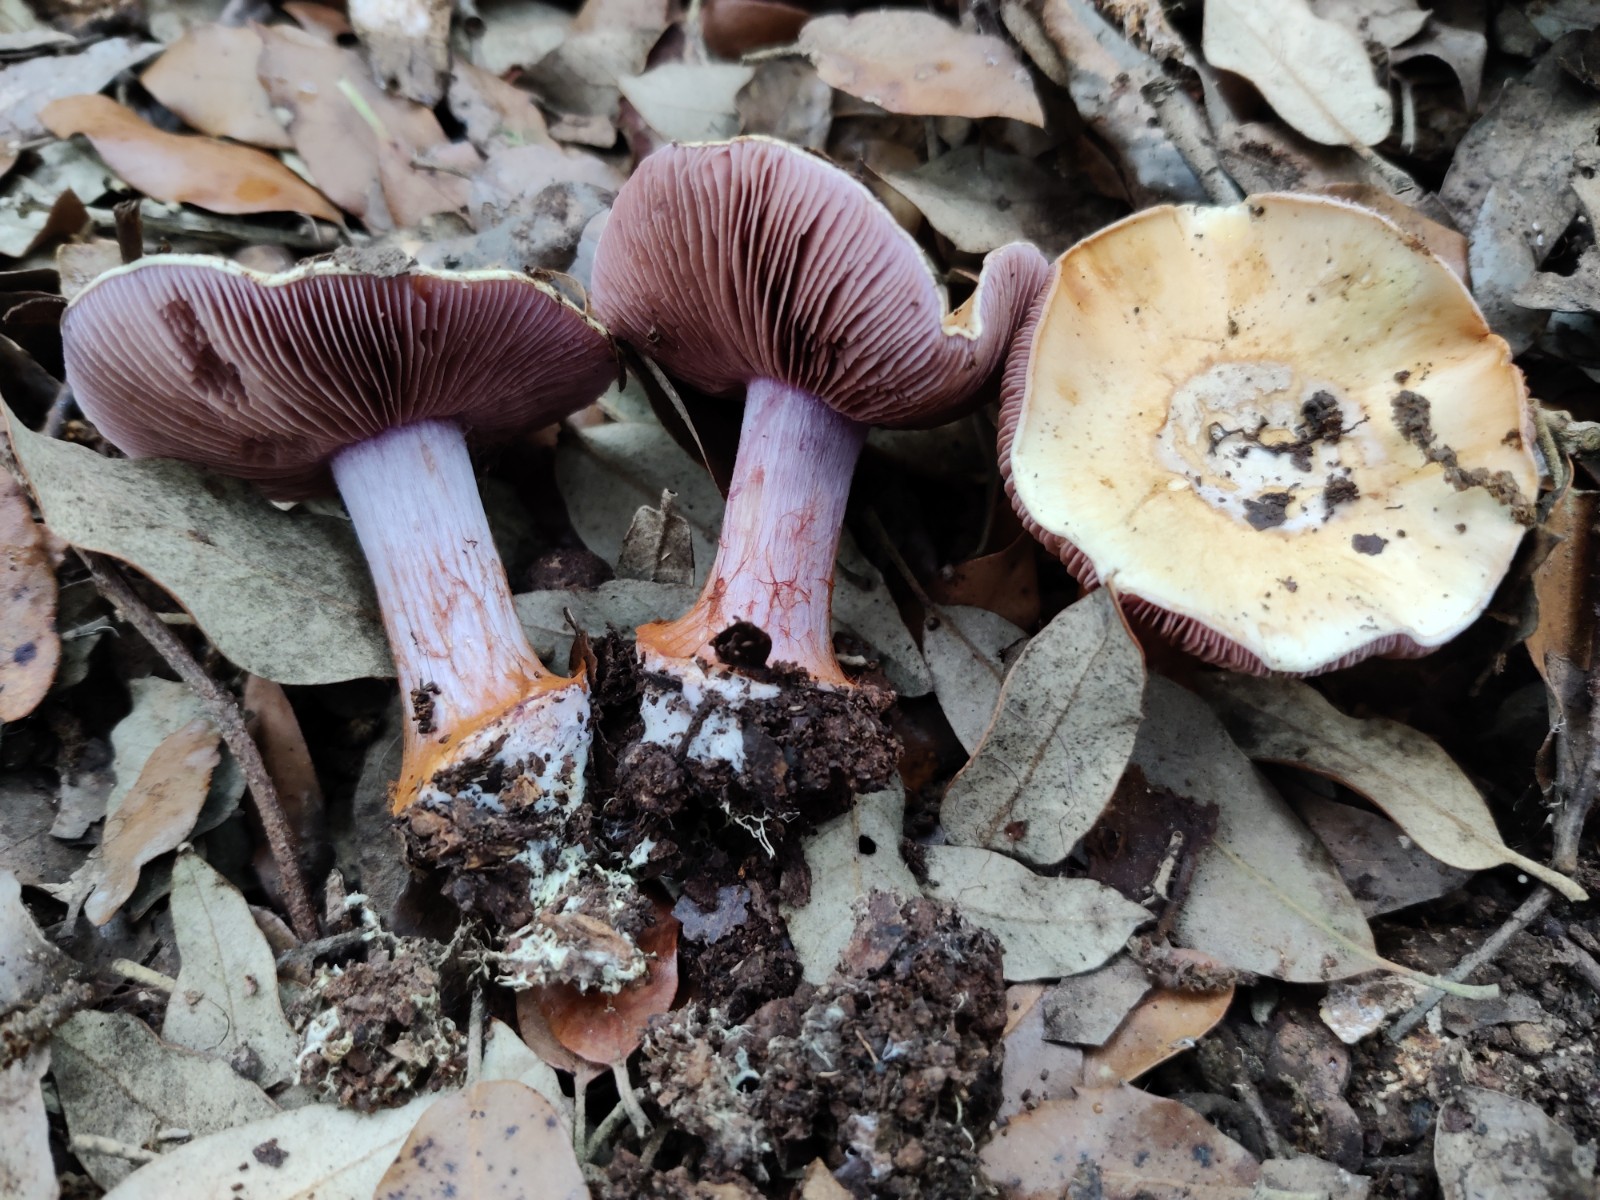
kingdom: Fungi
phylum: Basidiomycota
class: Agaricomycetes
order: Agaricales
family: Cortinariaceae
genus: Calonarius
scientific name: Calonarius splendidior
